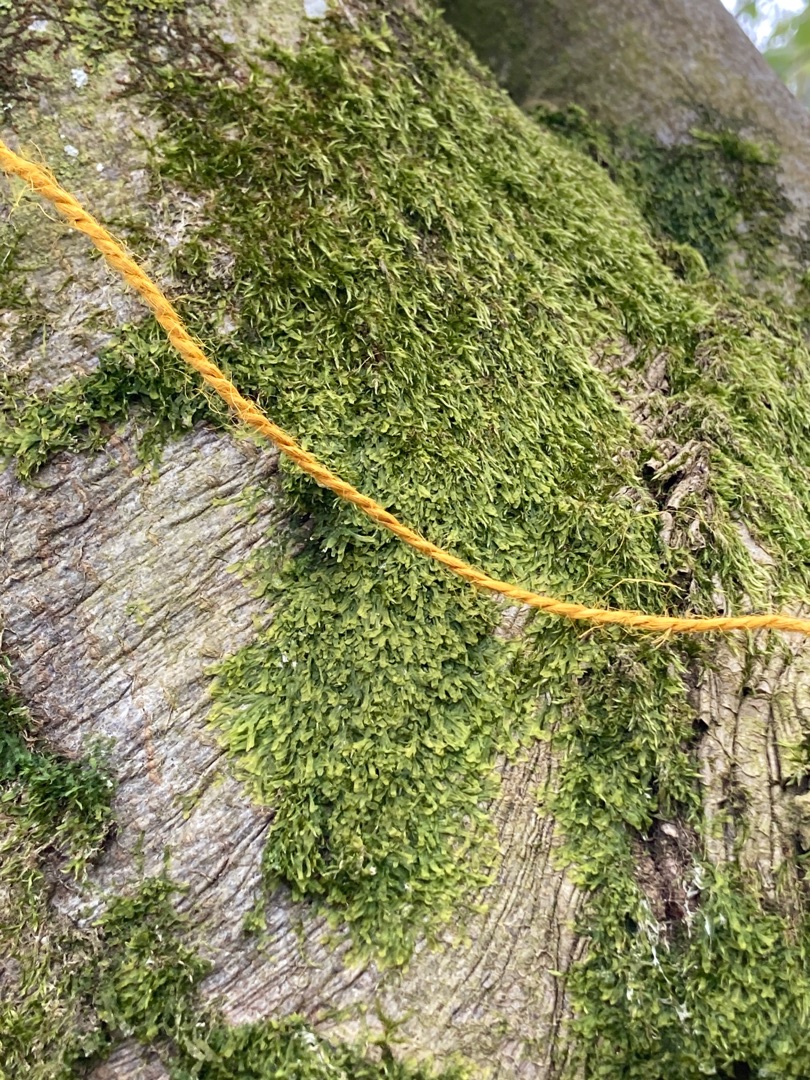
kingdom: Plantae
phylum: Marchantiophyta
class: Jungermanniopsida
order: Metzgeriales
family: Metzgeriaceae
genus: Metzgeria
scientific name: Metzgeria furcata
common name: Almindelig gaffelløv
